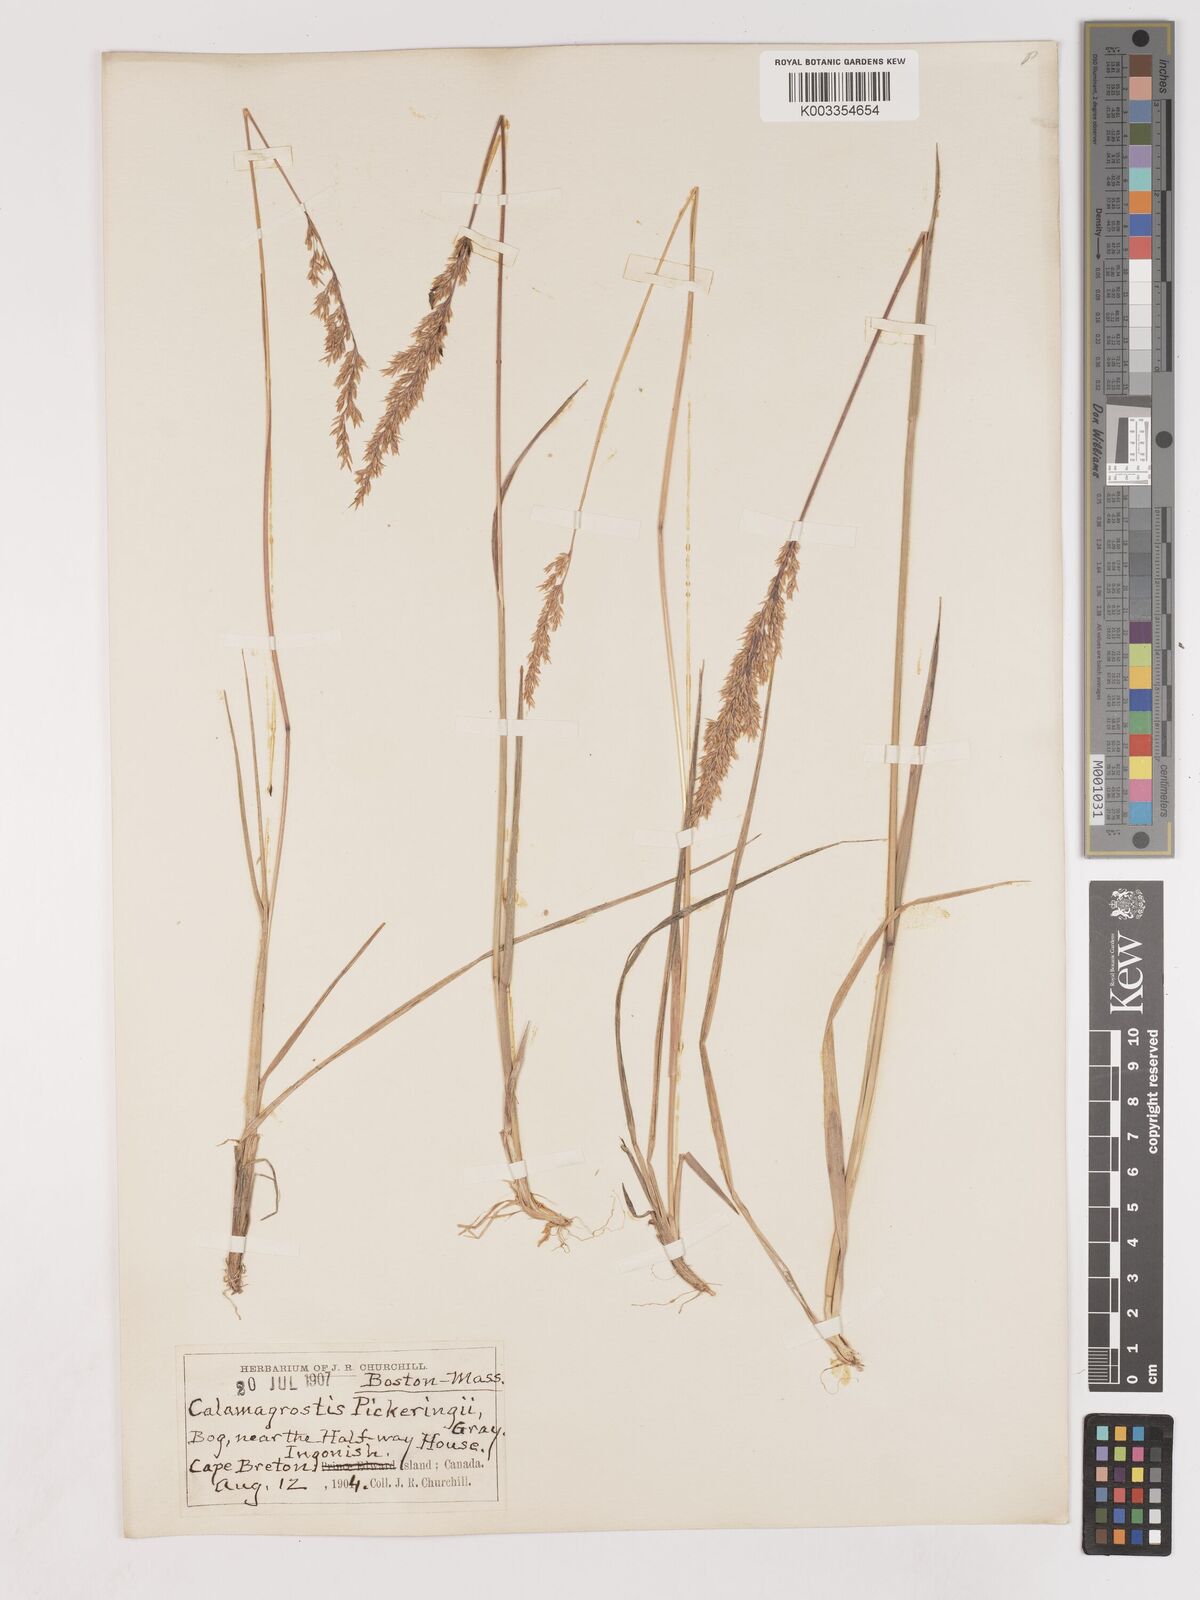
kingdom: Plantae
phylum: Tracheophyta
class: Liliopsida
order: Poales
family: Poaceae
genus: Calamagrostis
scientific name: Calamagrostis pickeringii
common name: Pickering's reed bentgrass
